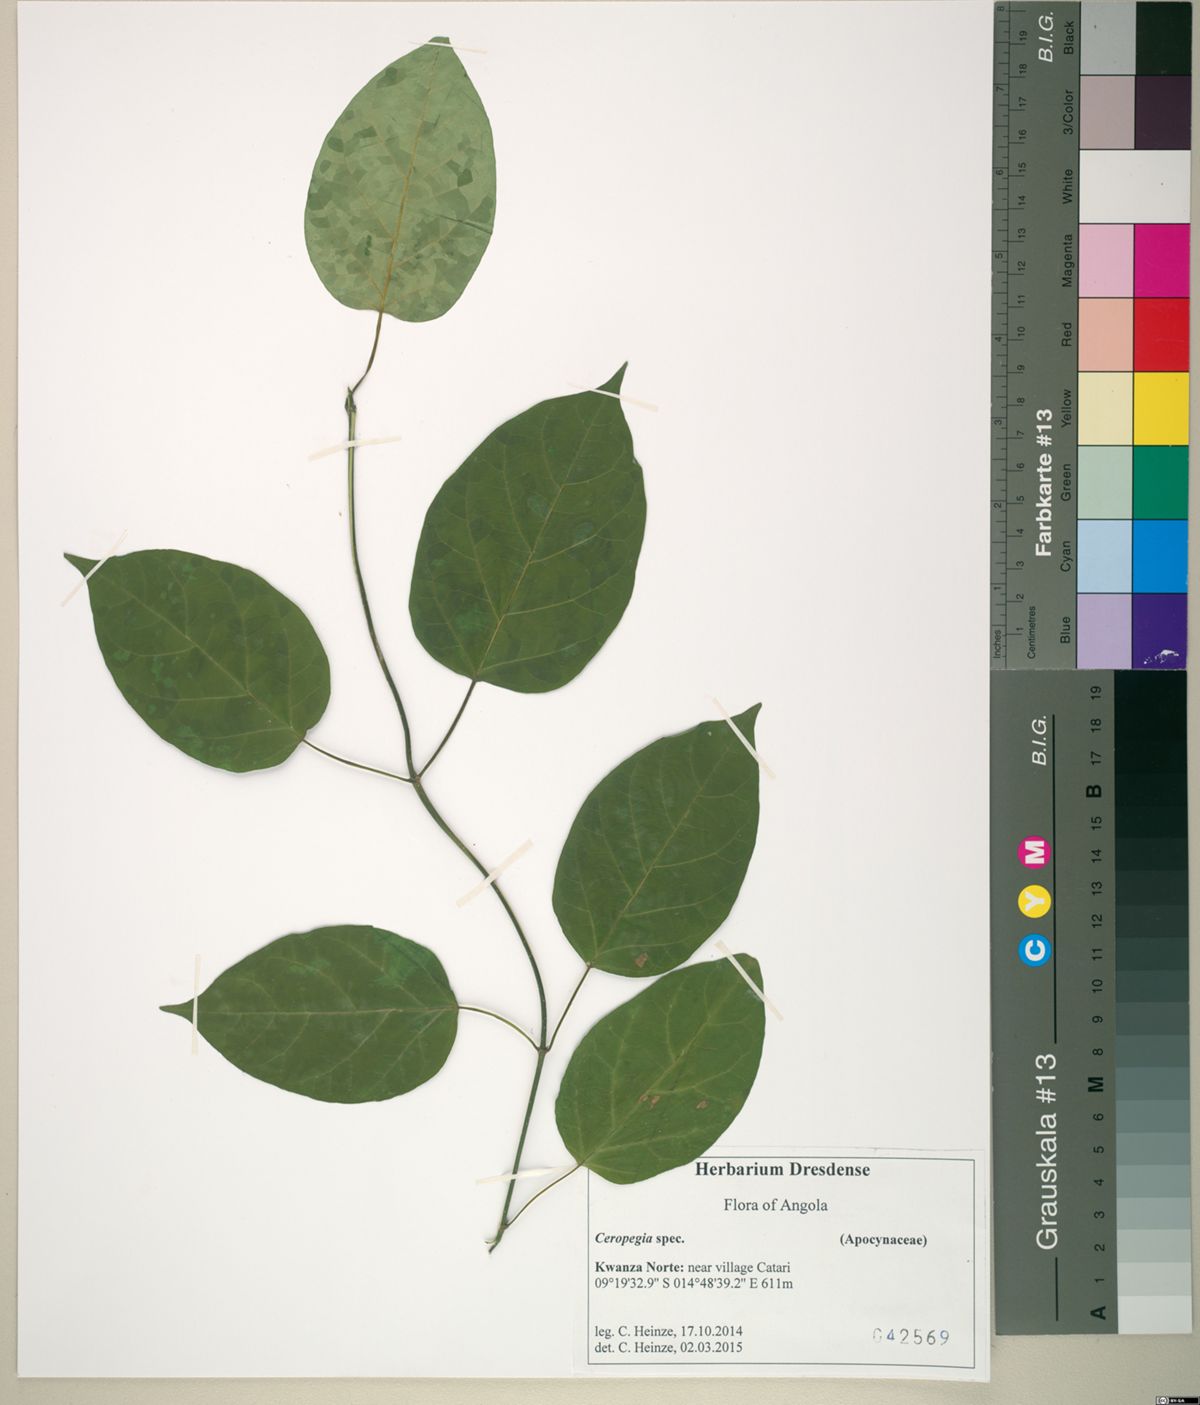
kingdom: Plantae
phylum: Tracheophyta
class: Magnoliopsida
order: Gentianales
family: Apocynaceae
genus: Ceropegia
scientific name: Ceropegia
